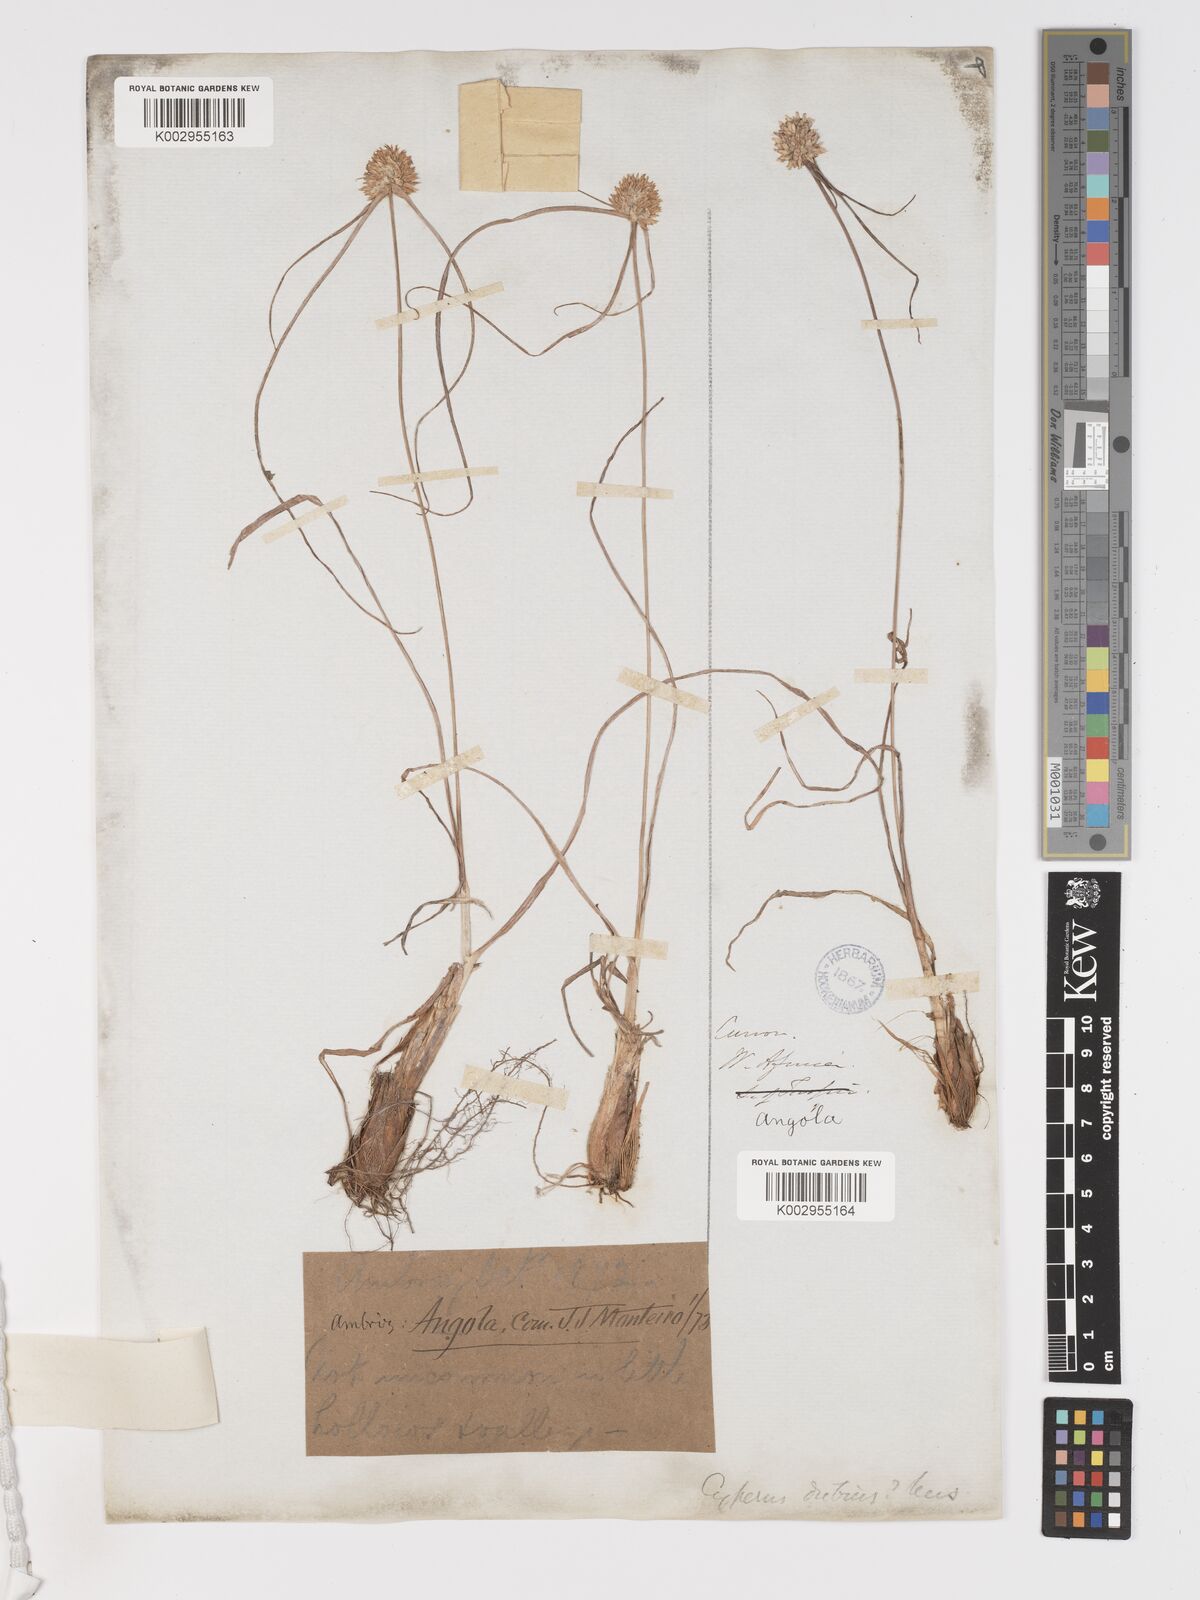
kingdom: Plantae
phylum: Tracheophyta
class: Liliopsida
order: Poales
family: Cyperaceae
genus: Cyperus
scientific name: Cyperus dubius
